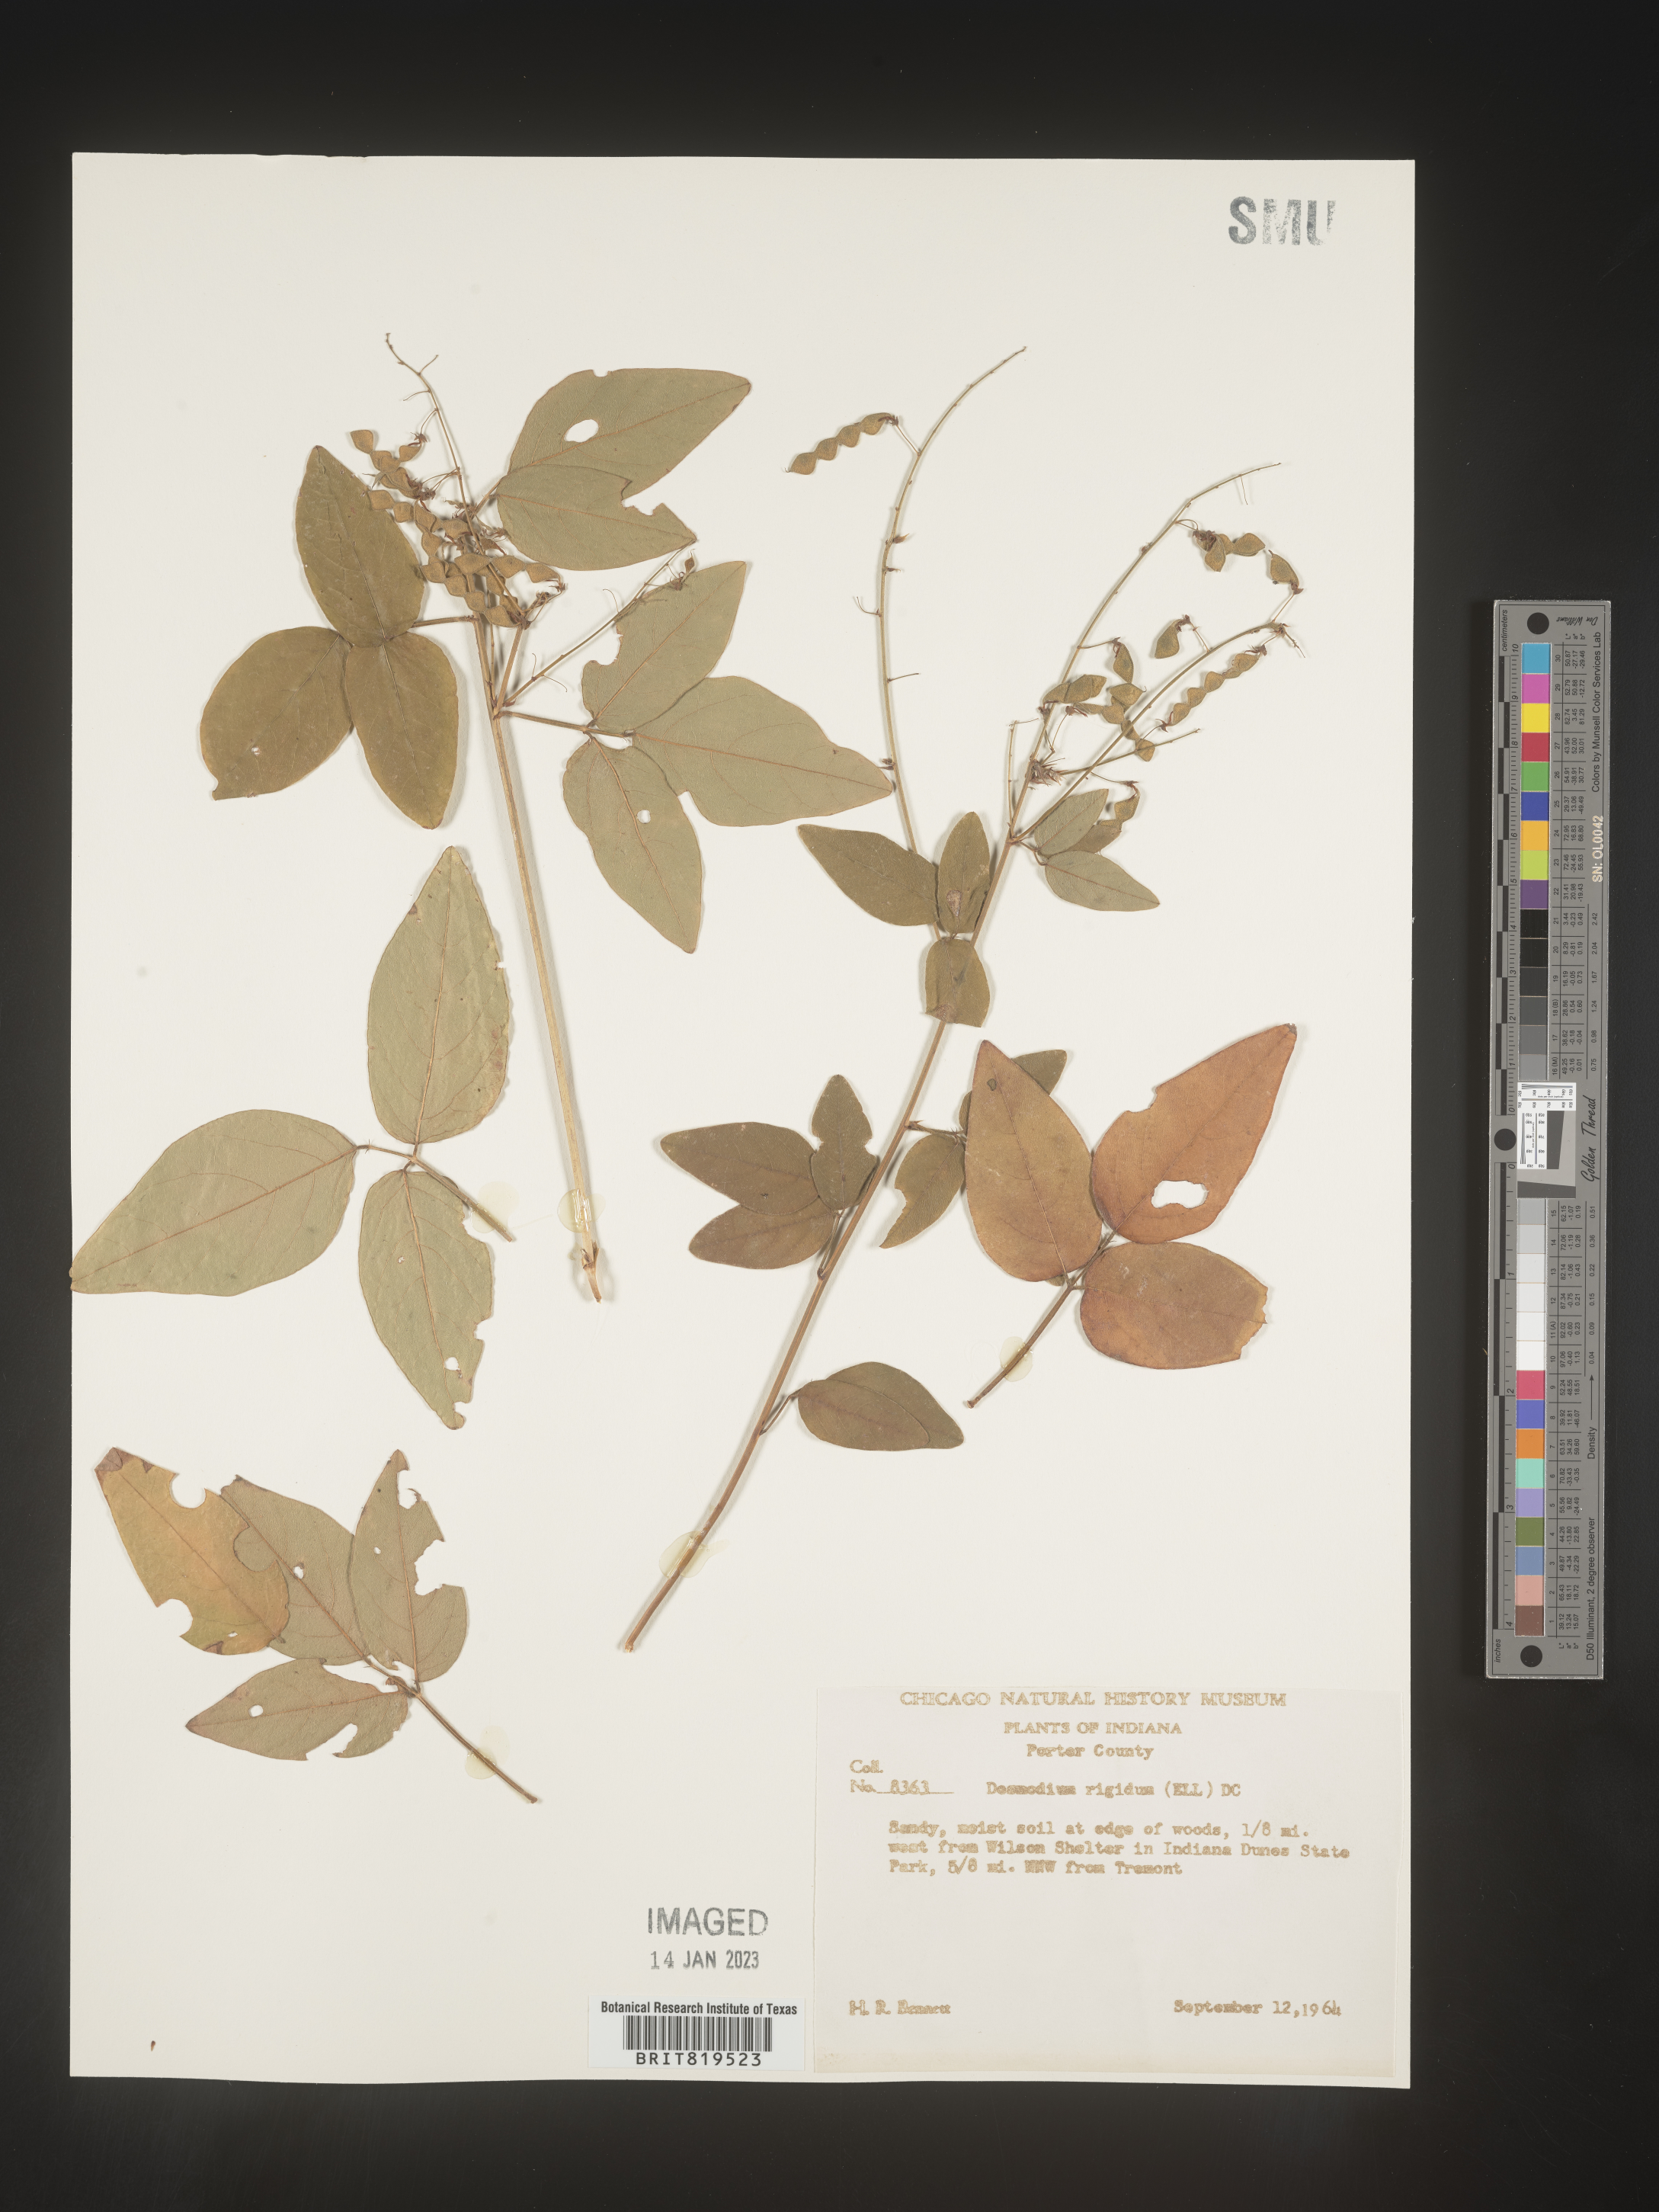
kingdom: Plantae
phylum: Tracheophyta
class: Magnoliopsida
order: Fabales
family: Fabaceae
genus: Desmodium
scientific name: Desmodium
